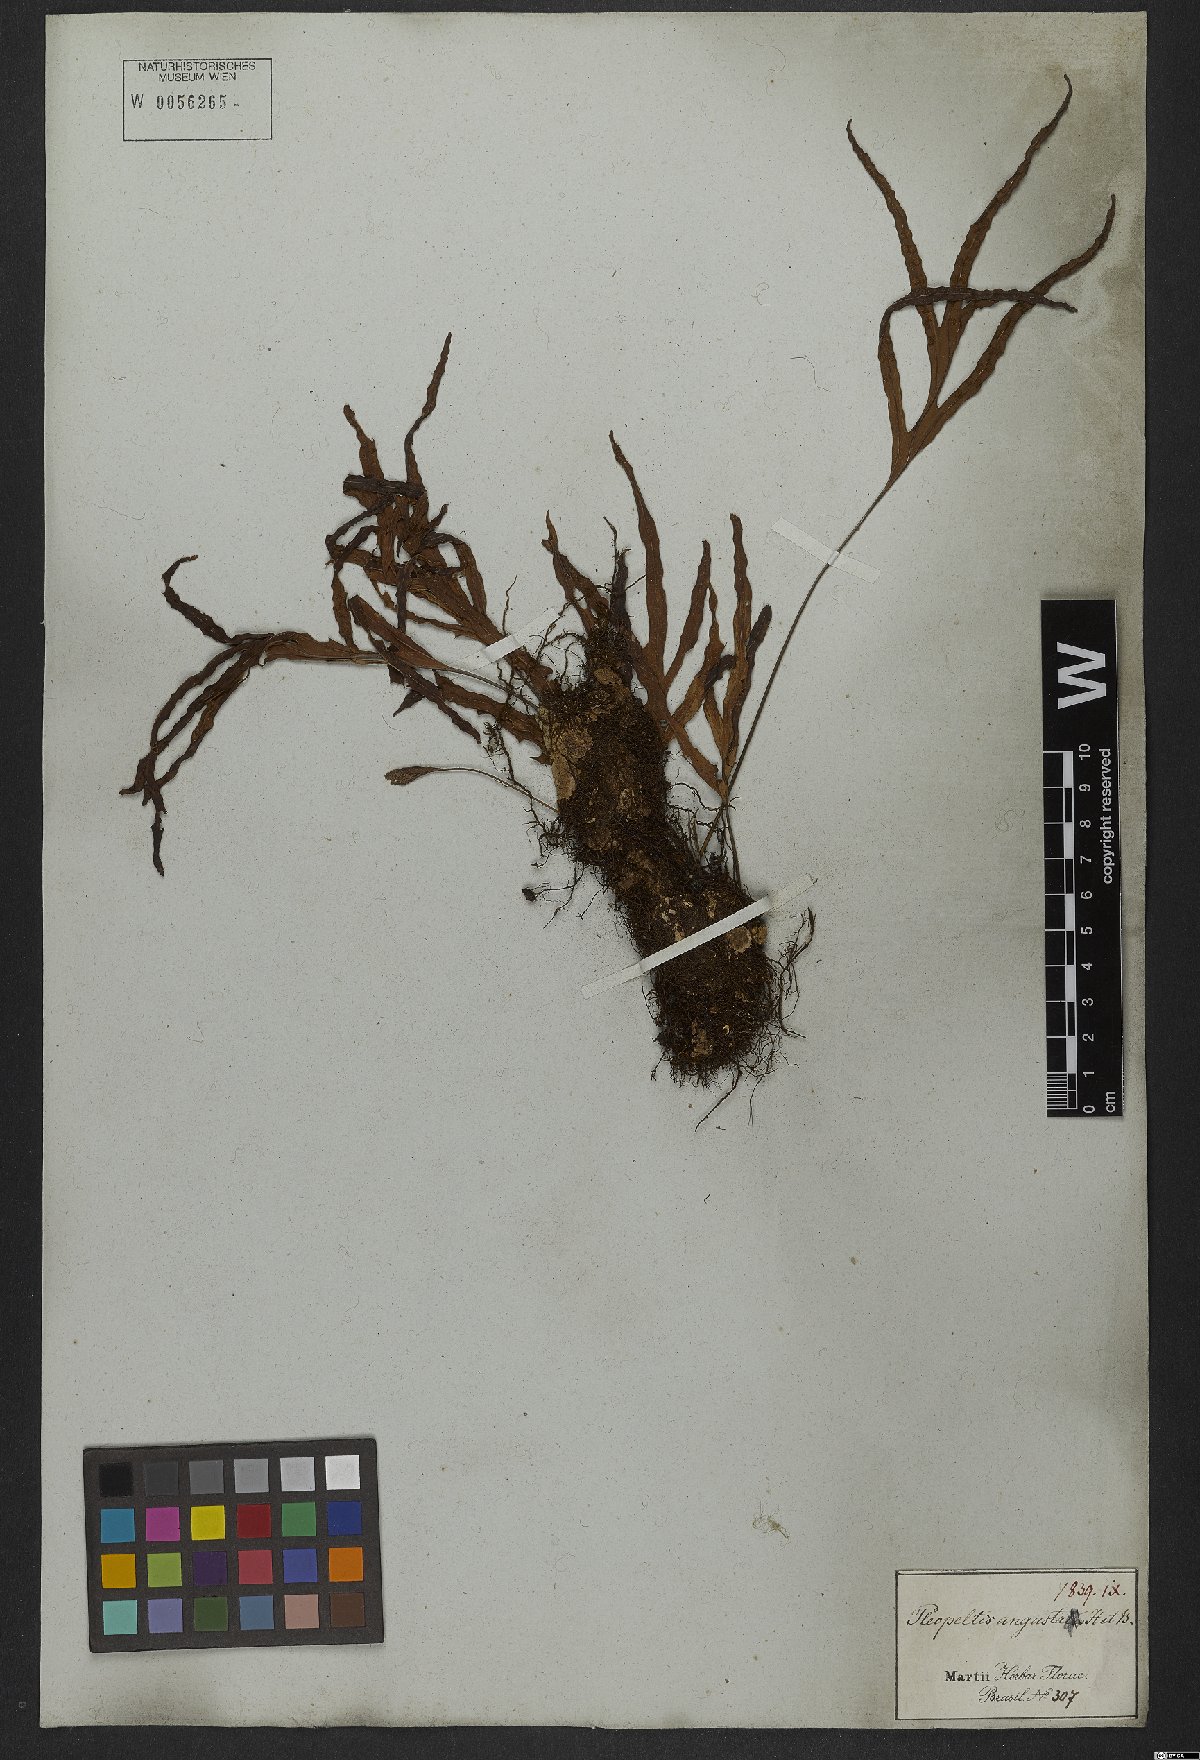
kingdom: Plantae
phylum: Tracheophyta
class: Polypodiopsida
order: Polypodiales
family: Polypodiaceae
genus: Pleopeltis
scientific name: Pleopeltis angusta
